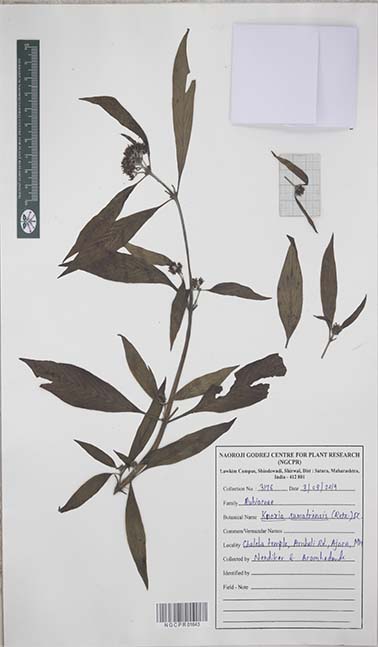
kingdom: Plantae
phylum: Tracheophyta
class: Magnoliopsida
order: Gentianales
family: Rubiaceae
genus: Knoxia
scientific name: Knoxia sumatrensis
